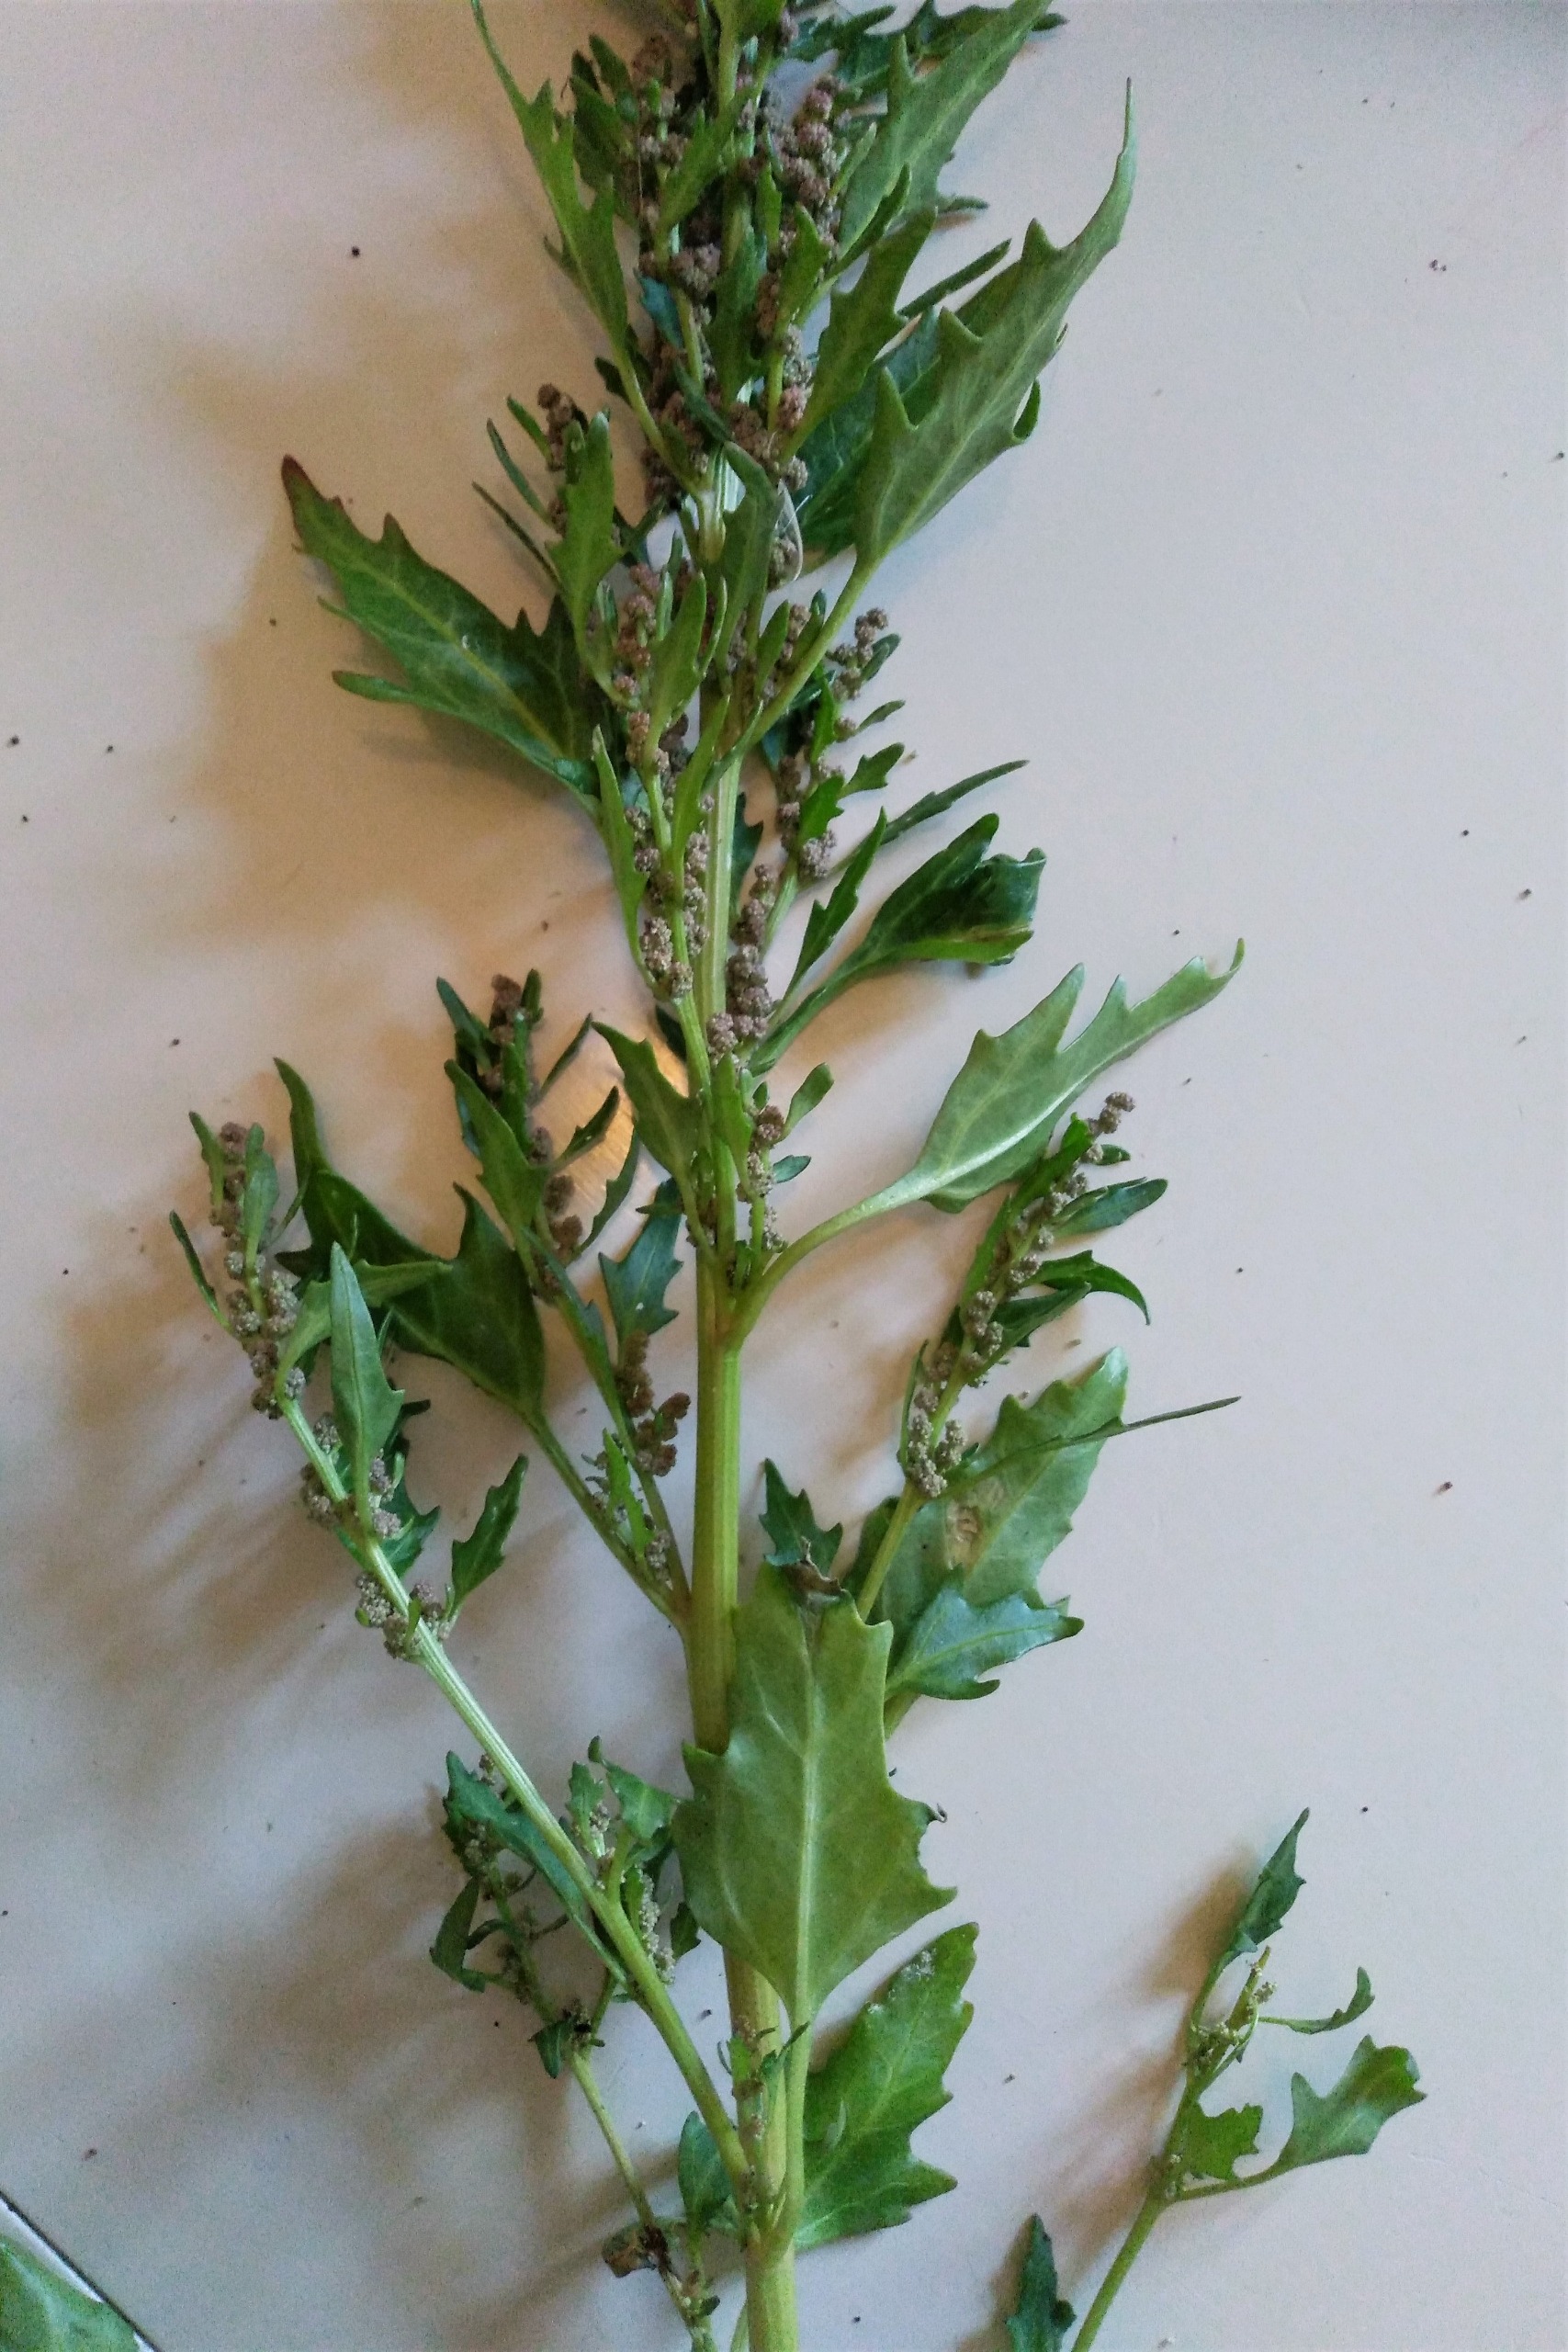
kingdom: Plantae
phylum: Tracheophyta
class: Magnoliopsida
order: Caryophyllales
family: Amaranthaceae
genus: Oxybasis
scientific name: Oxybasis rubra
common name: Rød gåsefod
